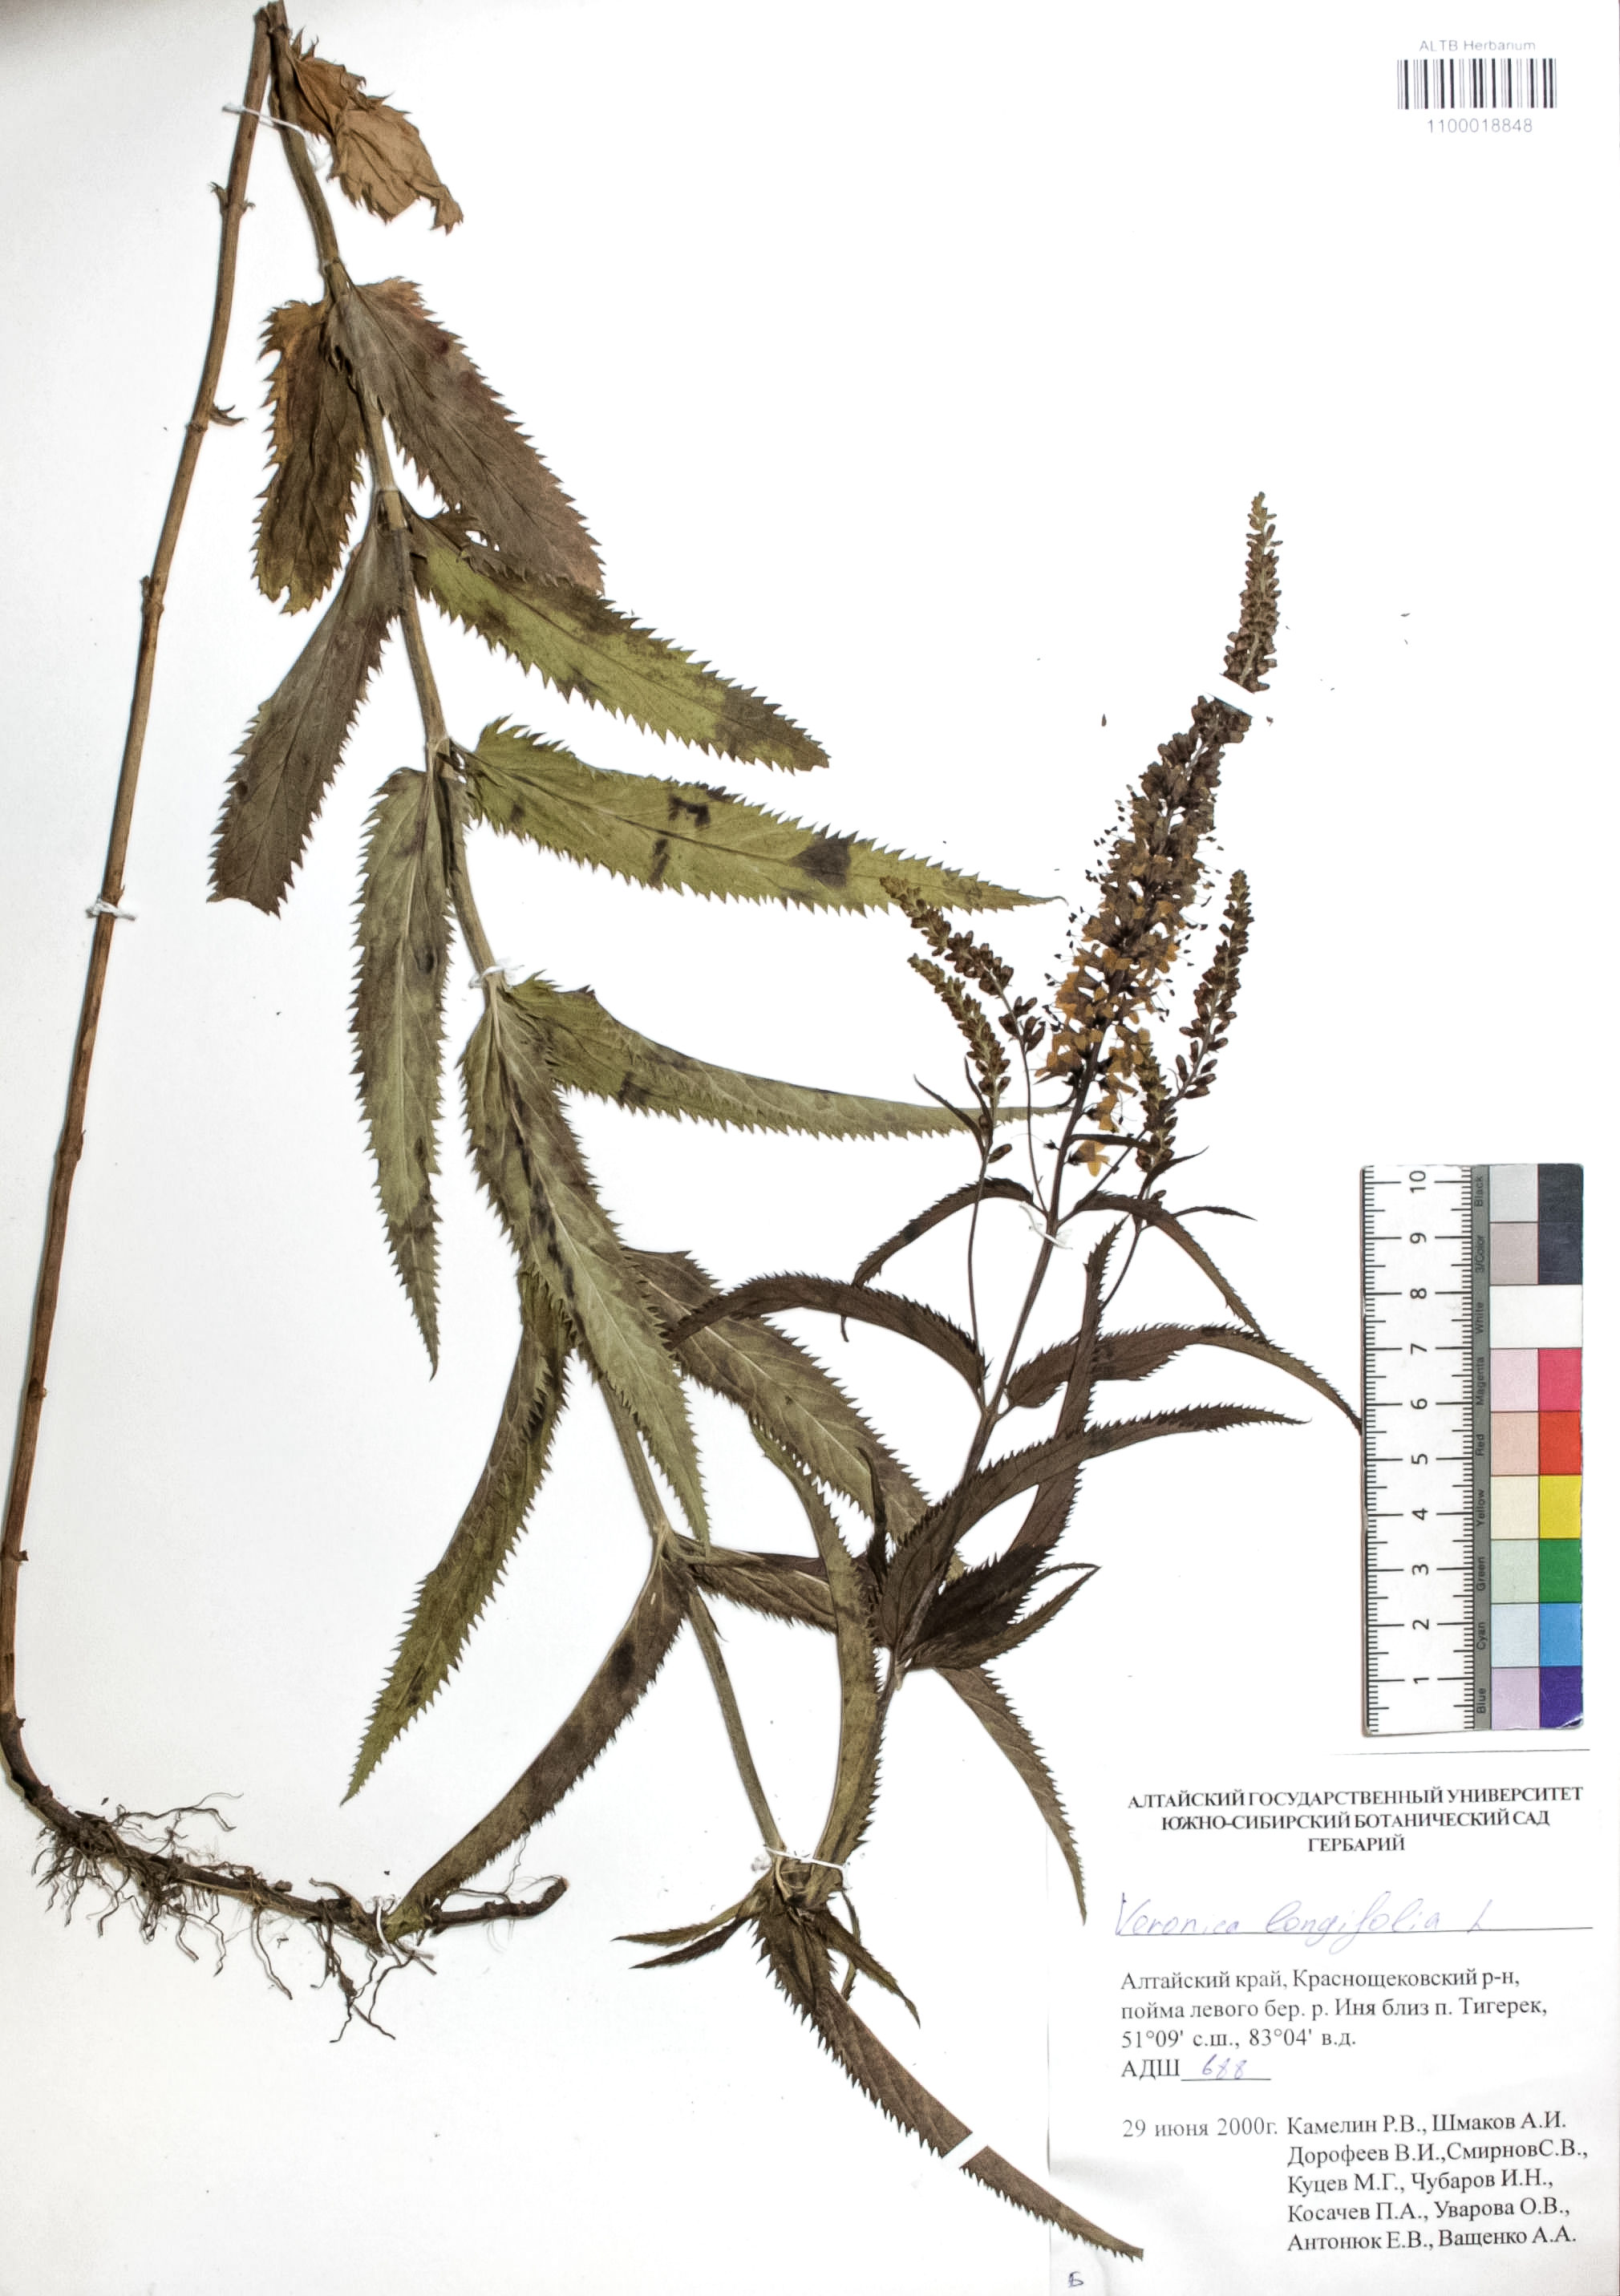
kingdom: Plantae
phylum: Tracheophyta
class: Magnoliopsida
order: Lamiales
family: Plantaginaceae
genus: Veronica
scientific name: Veronica longifolia
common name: Garden speedwell
